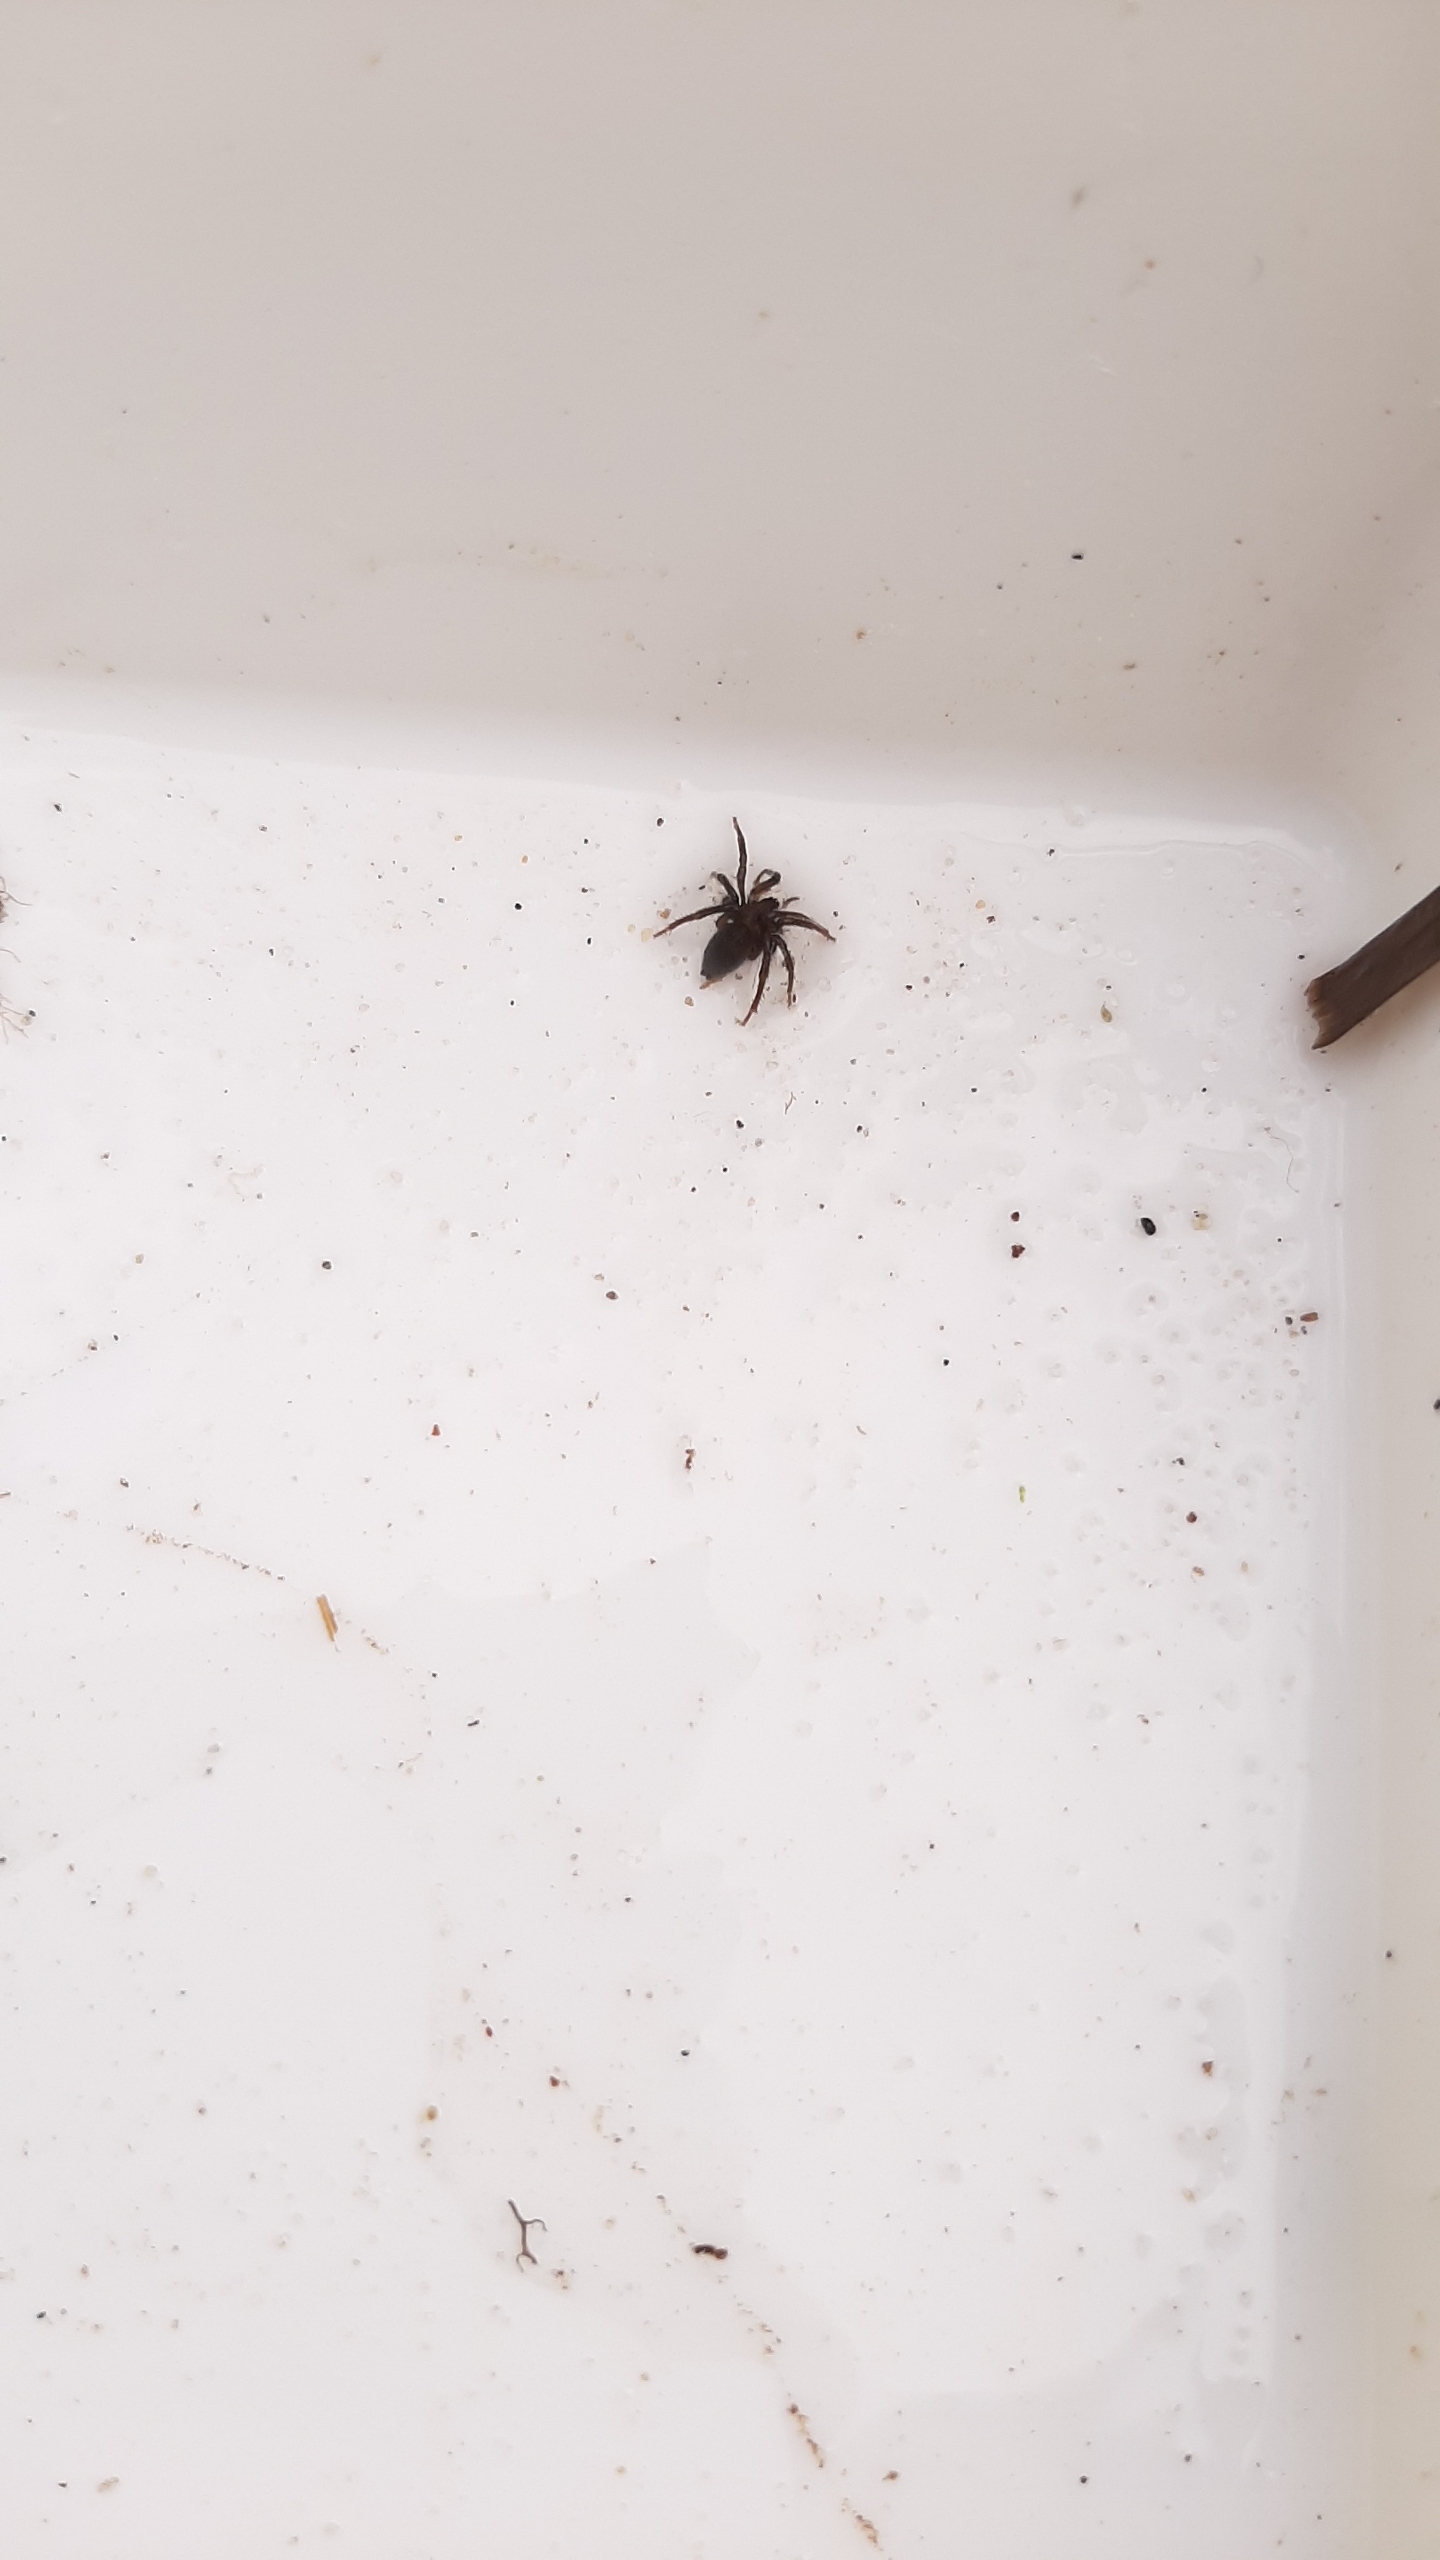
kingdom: Animalia
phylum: Arthropoda
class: Arachnida
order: Araneae
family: Dictynidae
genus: Argyroneta
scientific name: Argyroneta aquatica
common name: Vandedderkop
